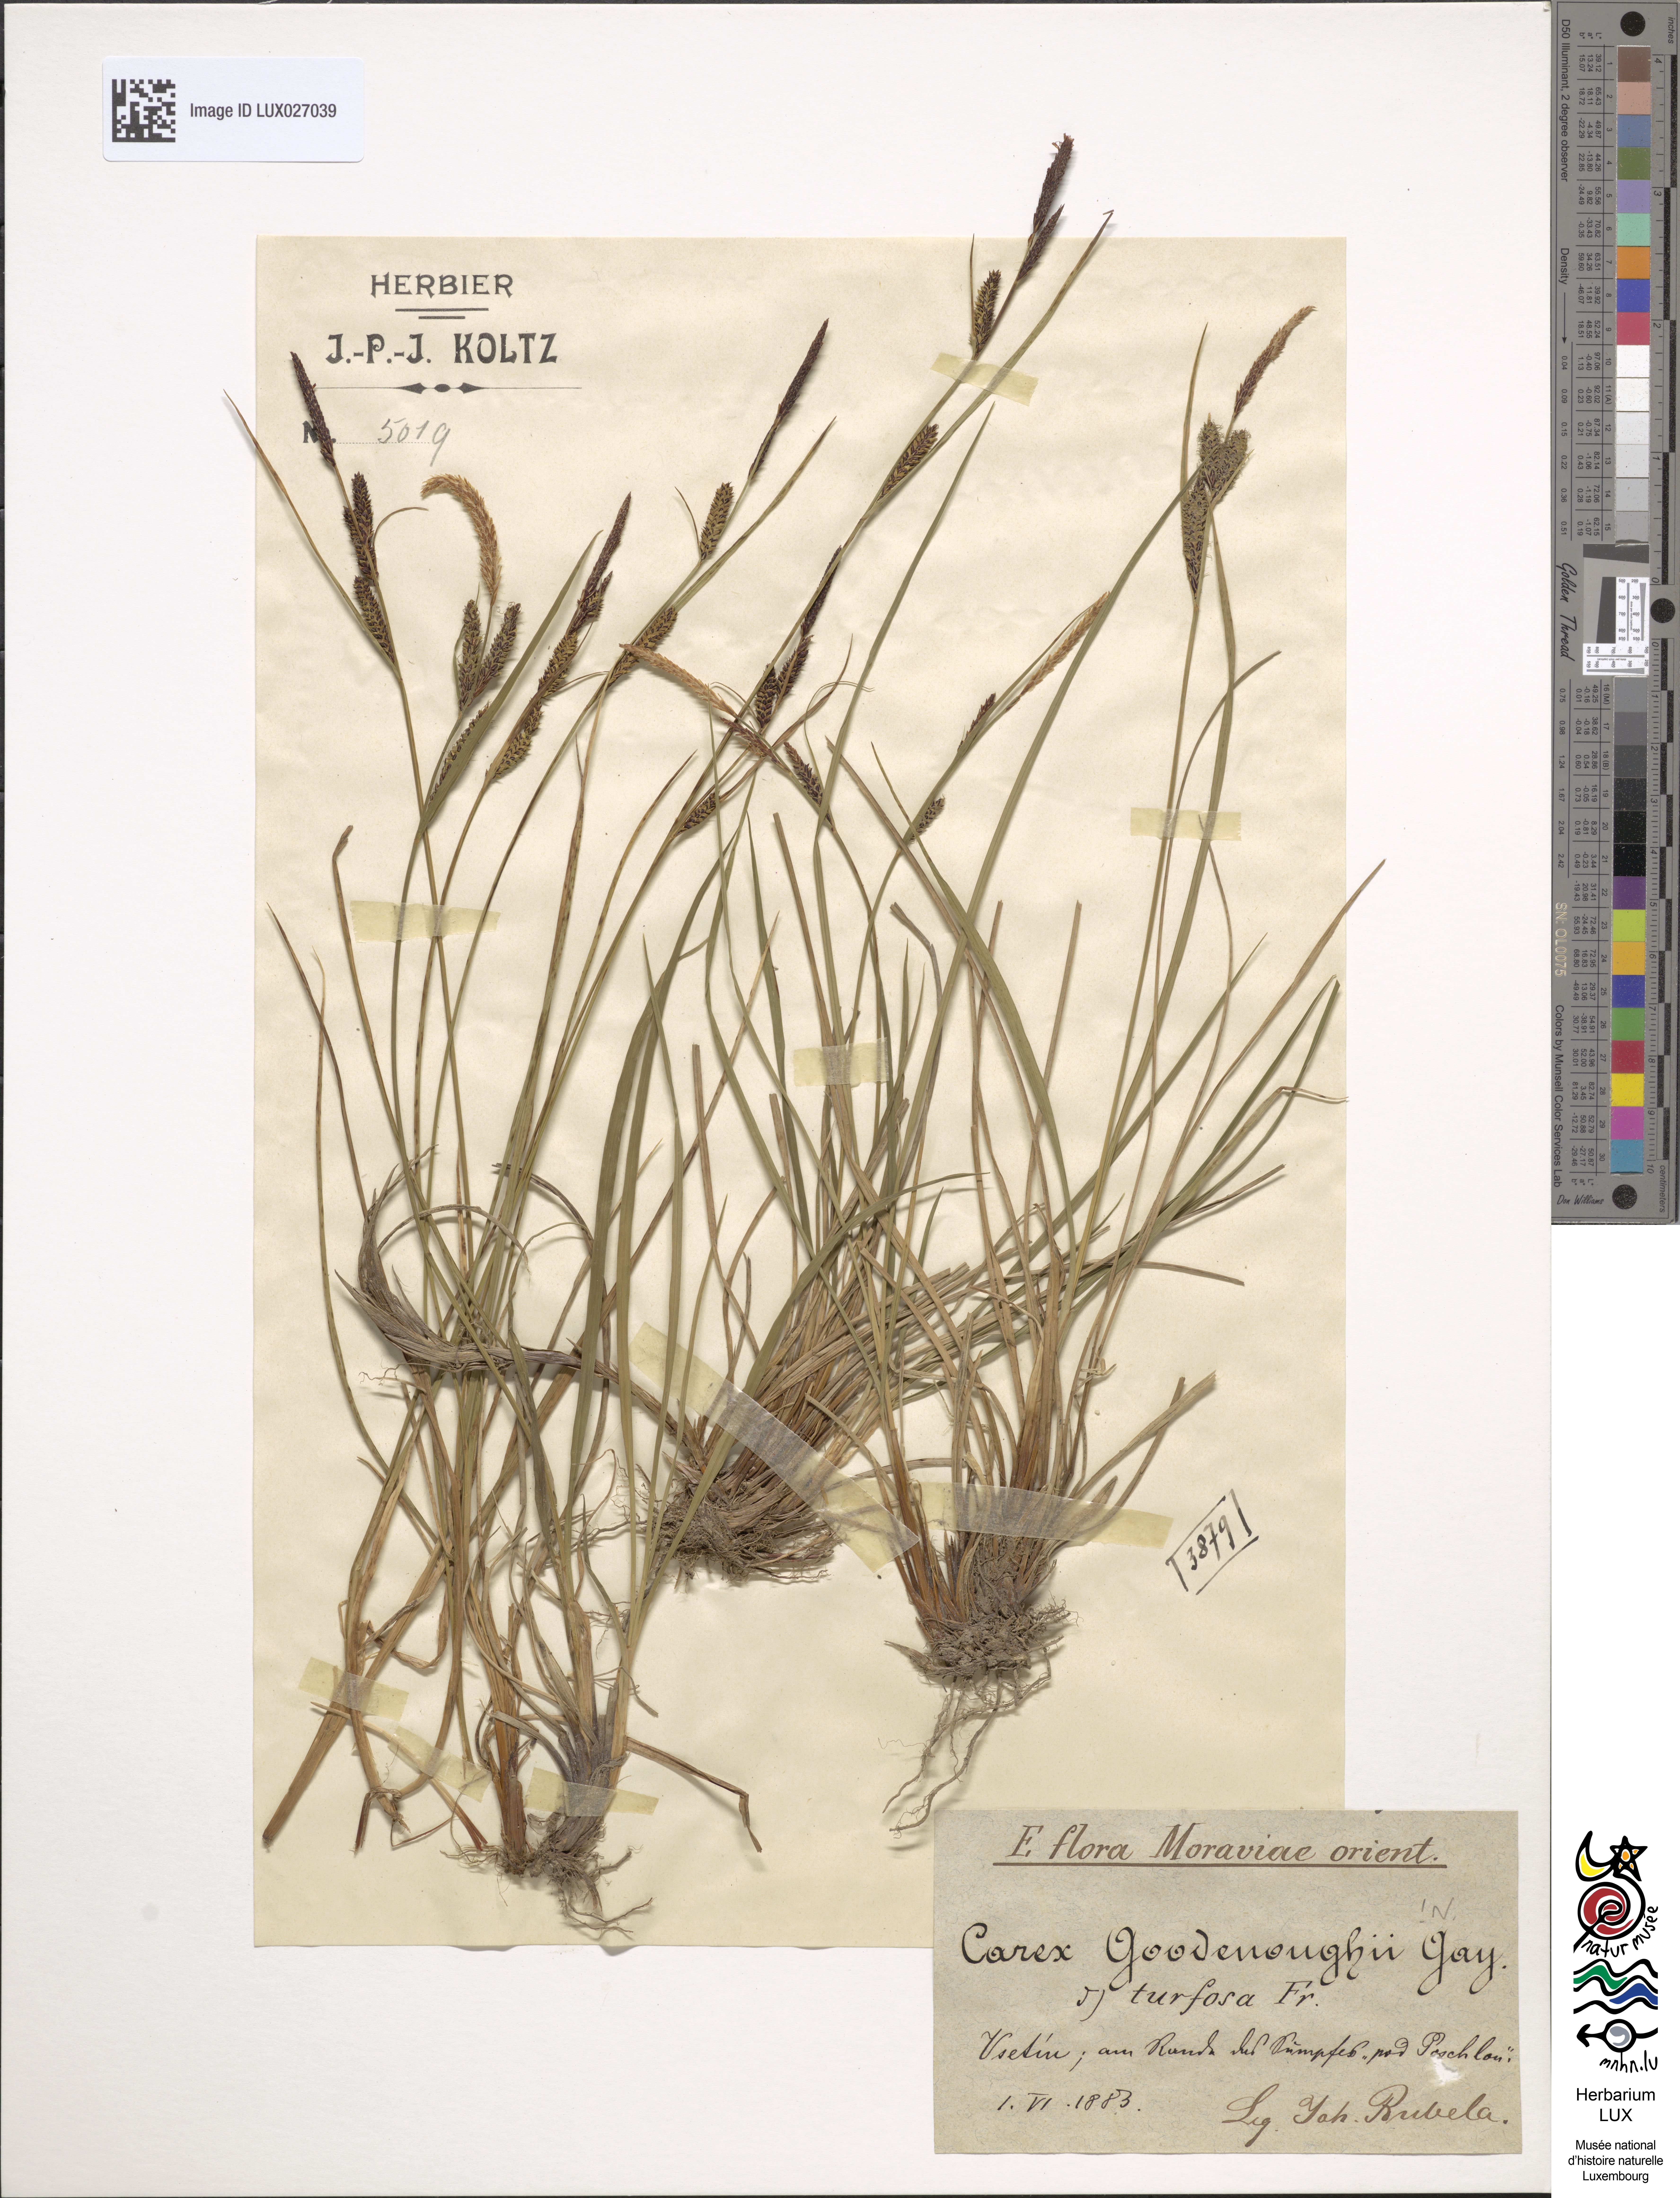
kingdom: Plantae
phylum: Tracheophyta
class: Liliopsida
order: Poales
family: Cyperaceae
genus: Carex
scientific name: Carex turfosa
